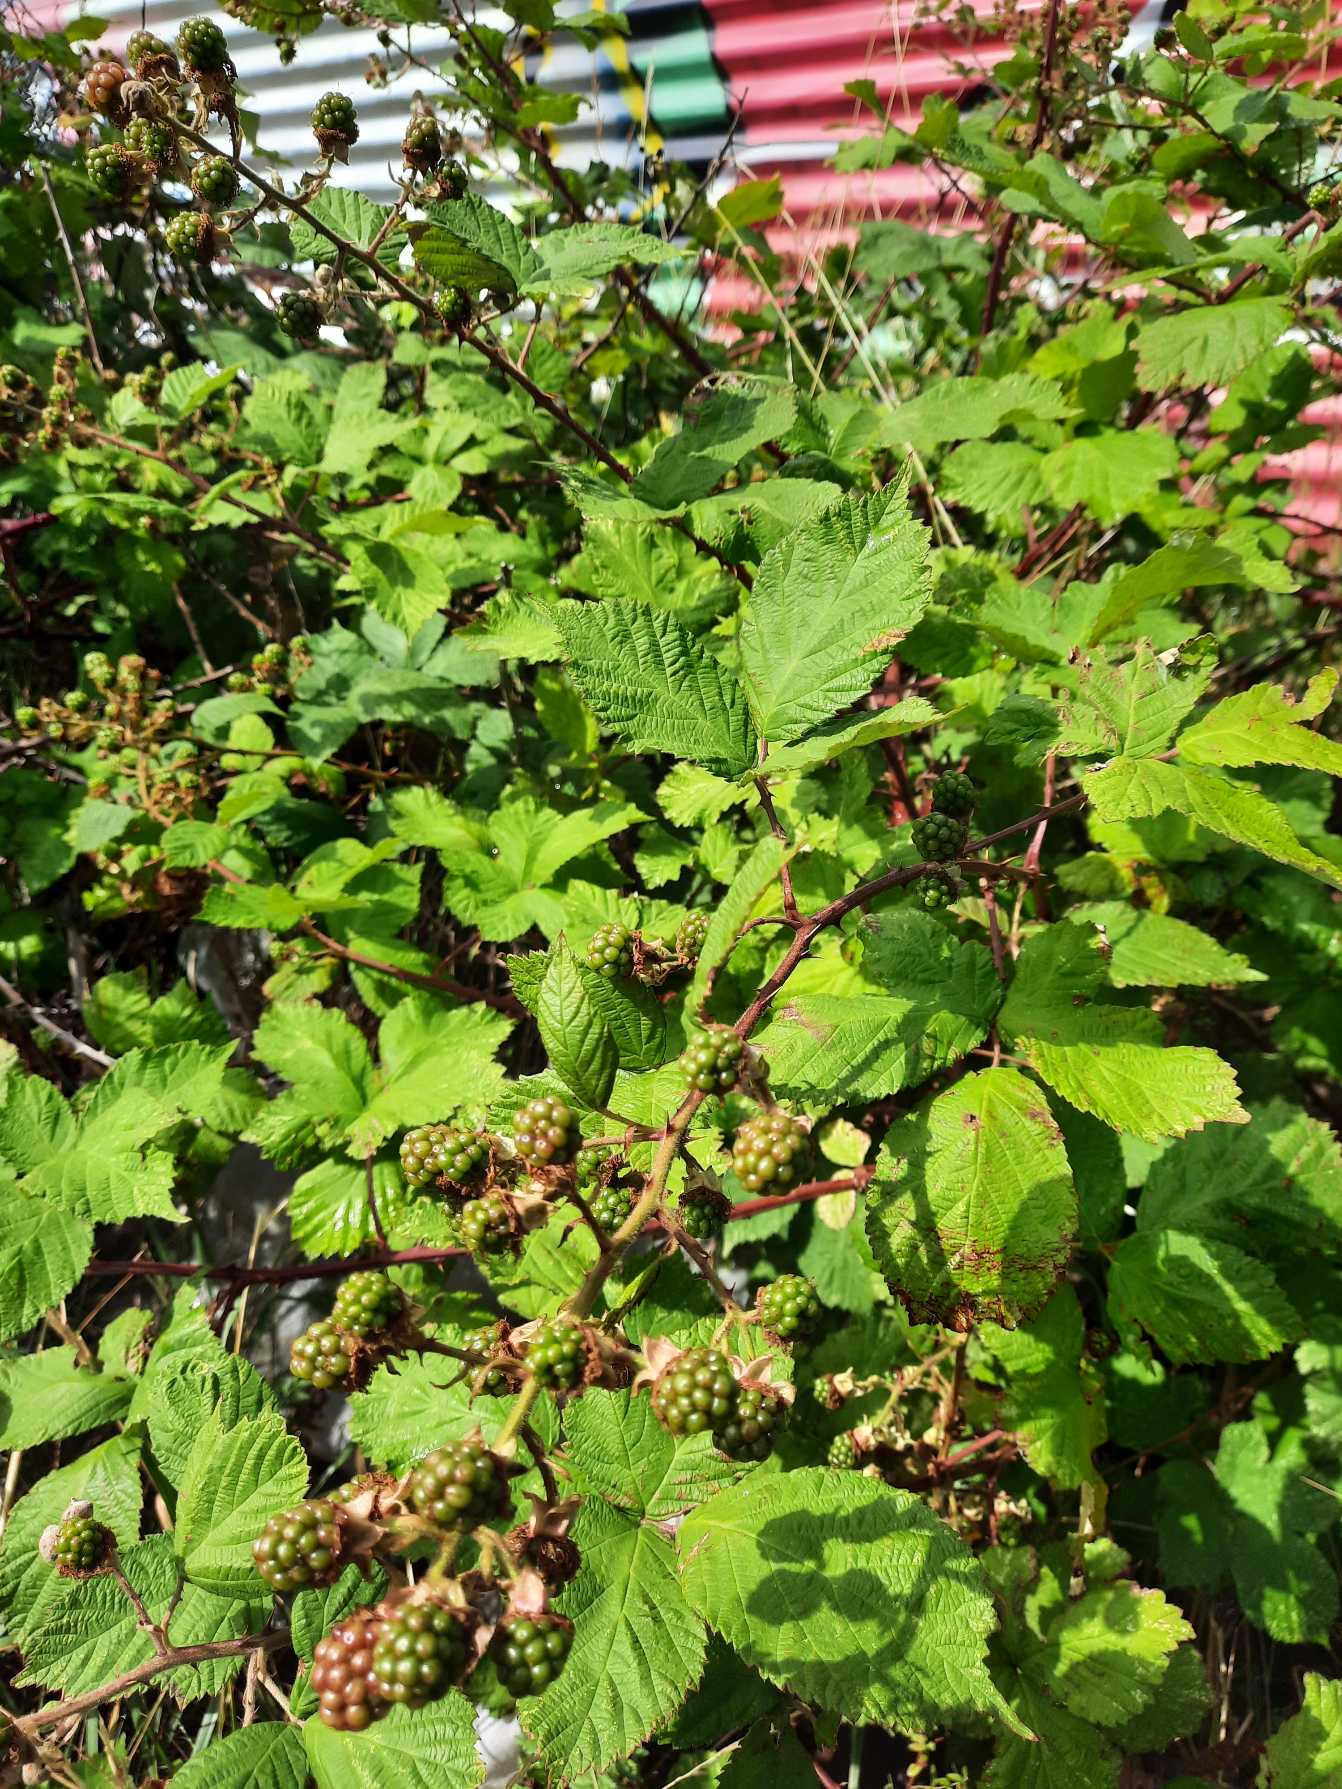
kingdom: Plantae
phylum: Tracheophyta
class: Magnoliopsida
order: Rosales
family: Rosaceae
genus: Rubus
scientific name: Rubus armeniacus
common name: Armensk brombær
